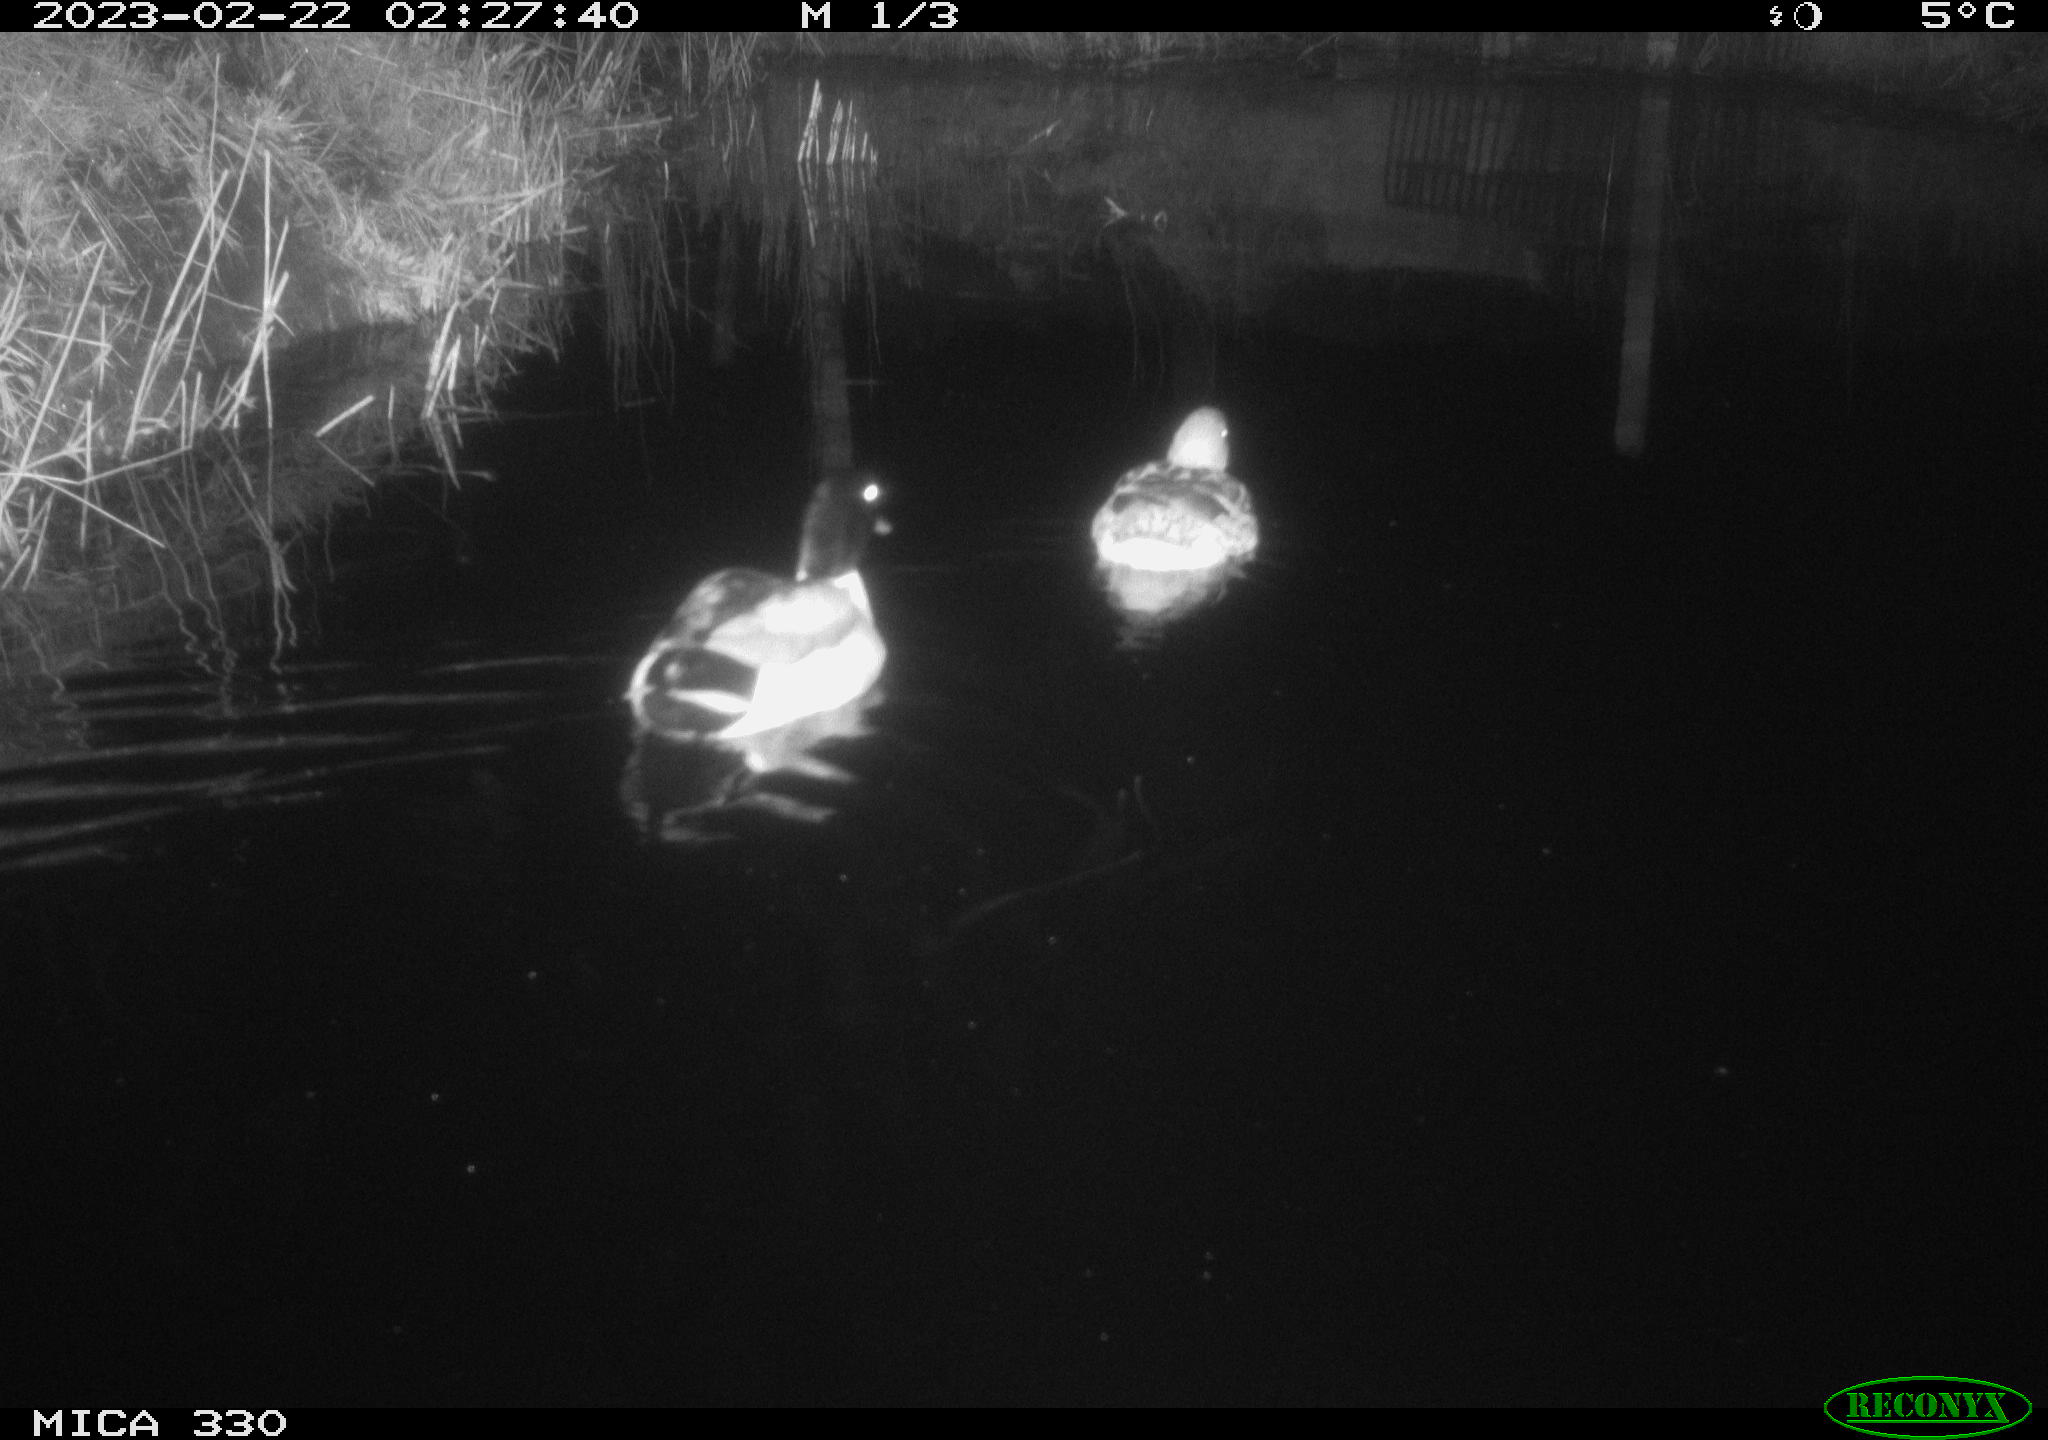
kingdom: Animalia
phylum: Chordata
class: Aves
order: Anseriformes
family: Anatidae
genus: Anas
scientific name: Anas
